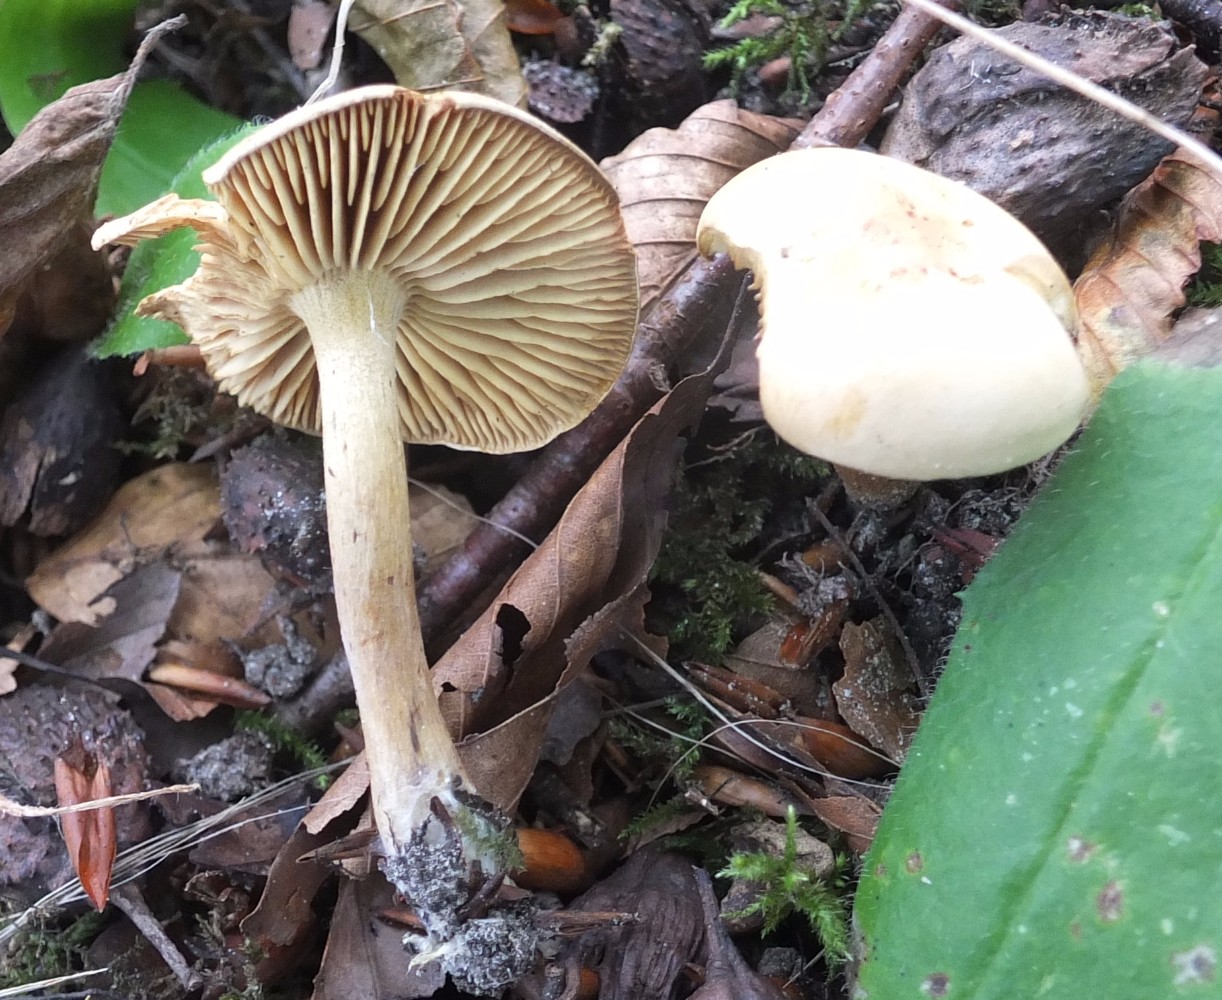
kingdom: Fungi
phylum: Basidiomycota
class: Agaricomycetes
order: Agaricales
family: Tricholomataceae
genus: Tricholoma
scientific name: Tricholoma sulphureum
